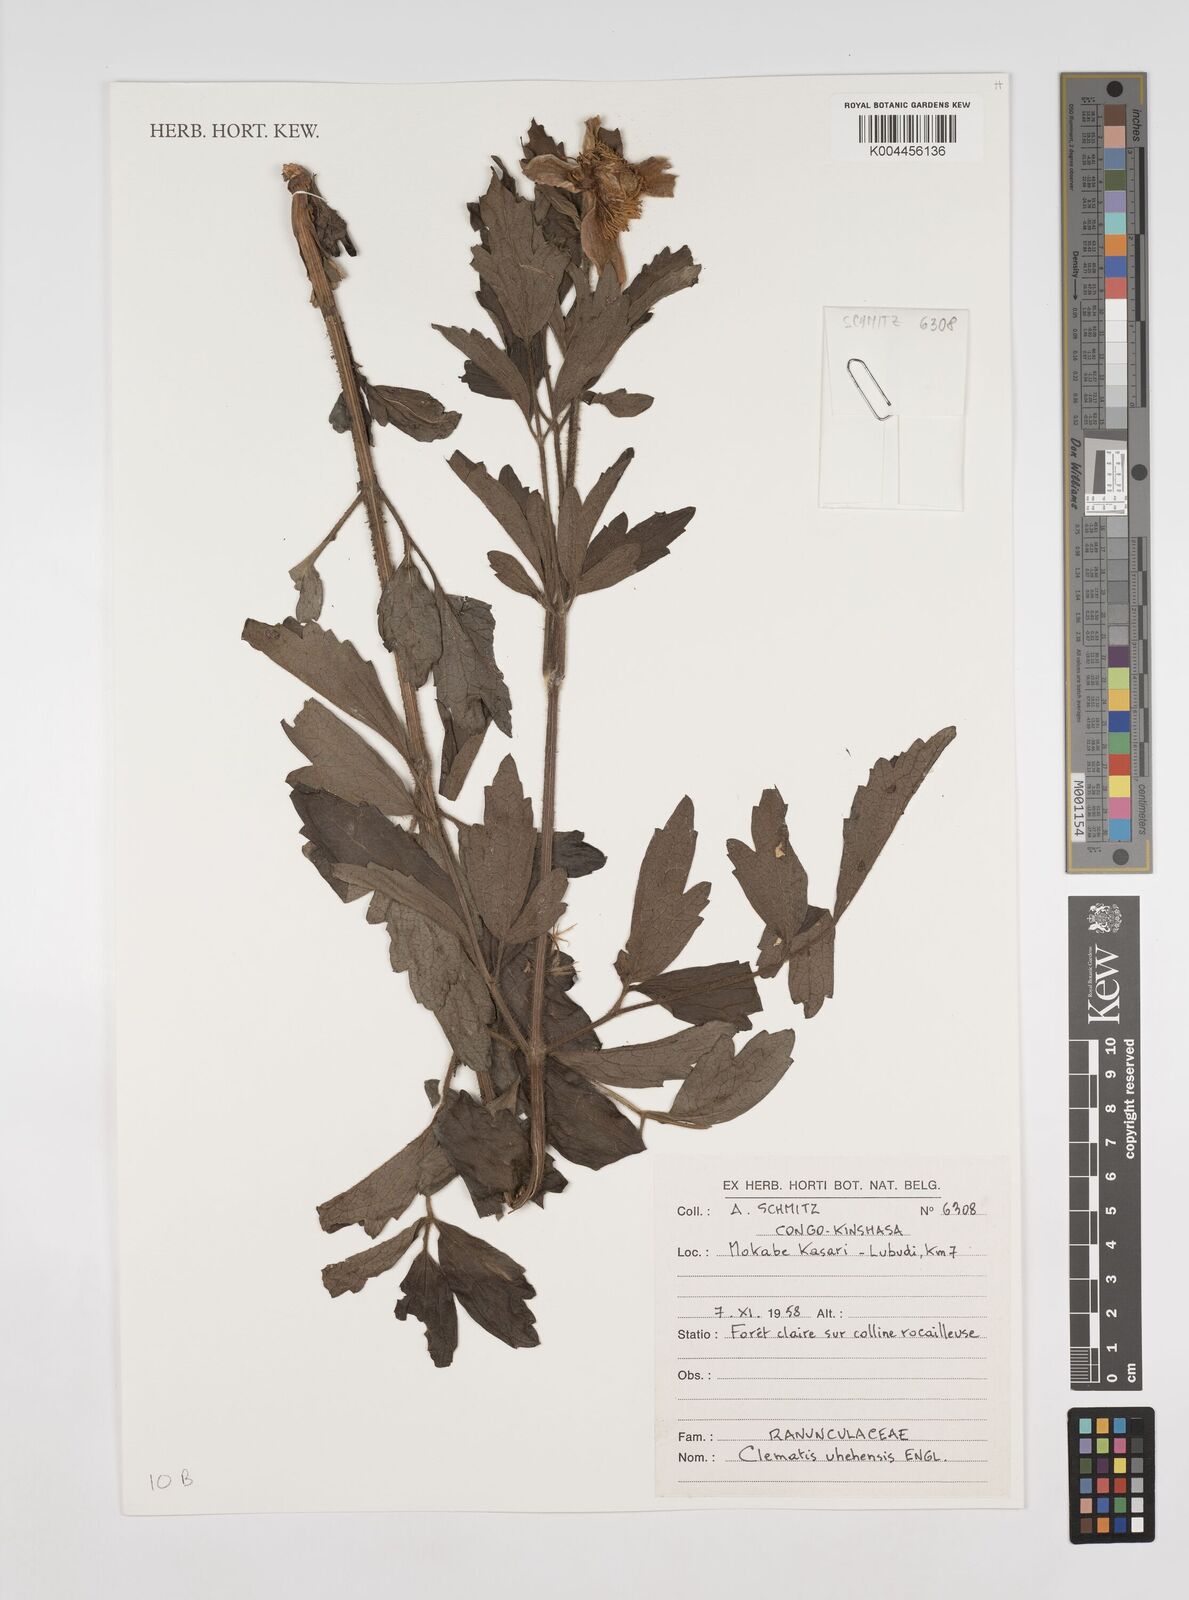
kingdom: Plantae
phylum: Tracheophyta
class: Magnoliopsida
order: Ranunculales
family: Ranunculaceae
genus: Clematis
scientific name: Clematis uhehensis
